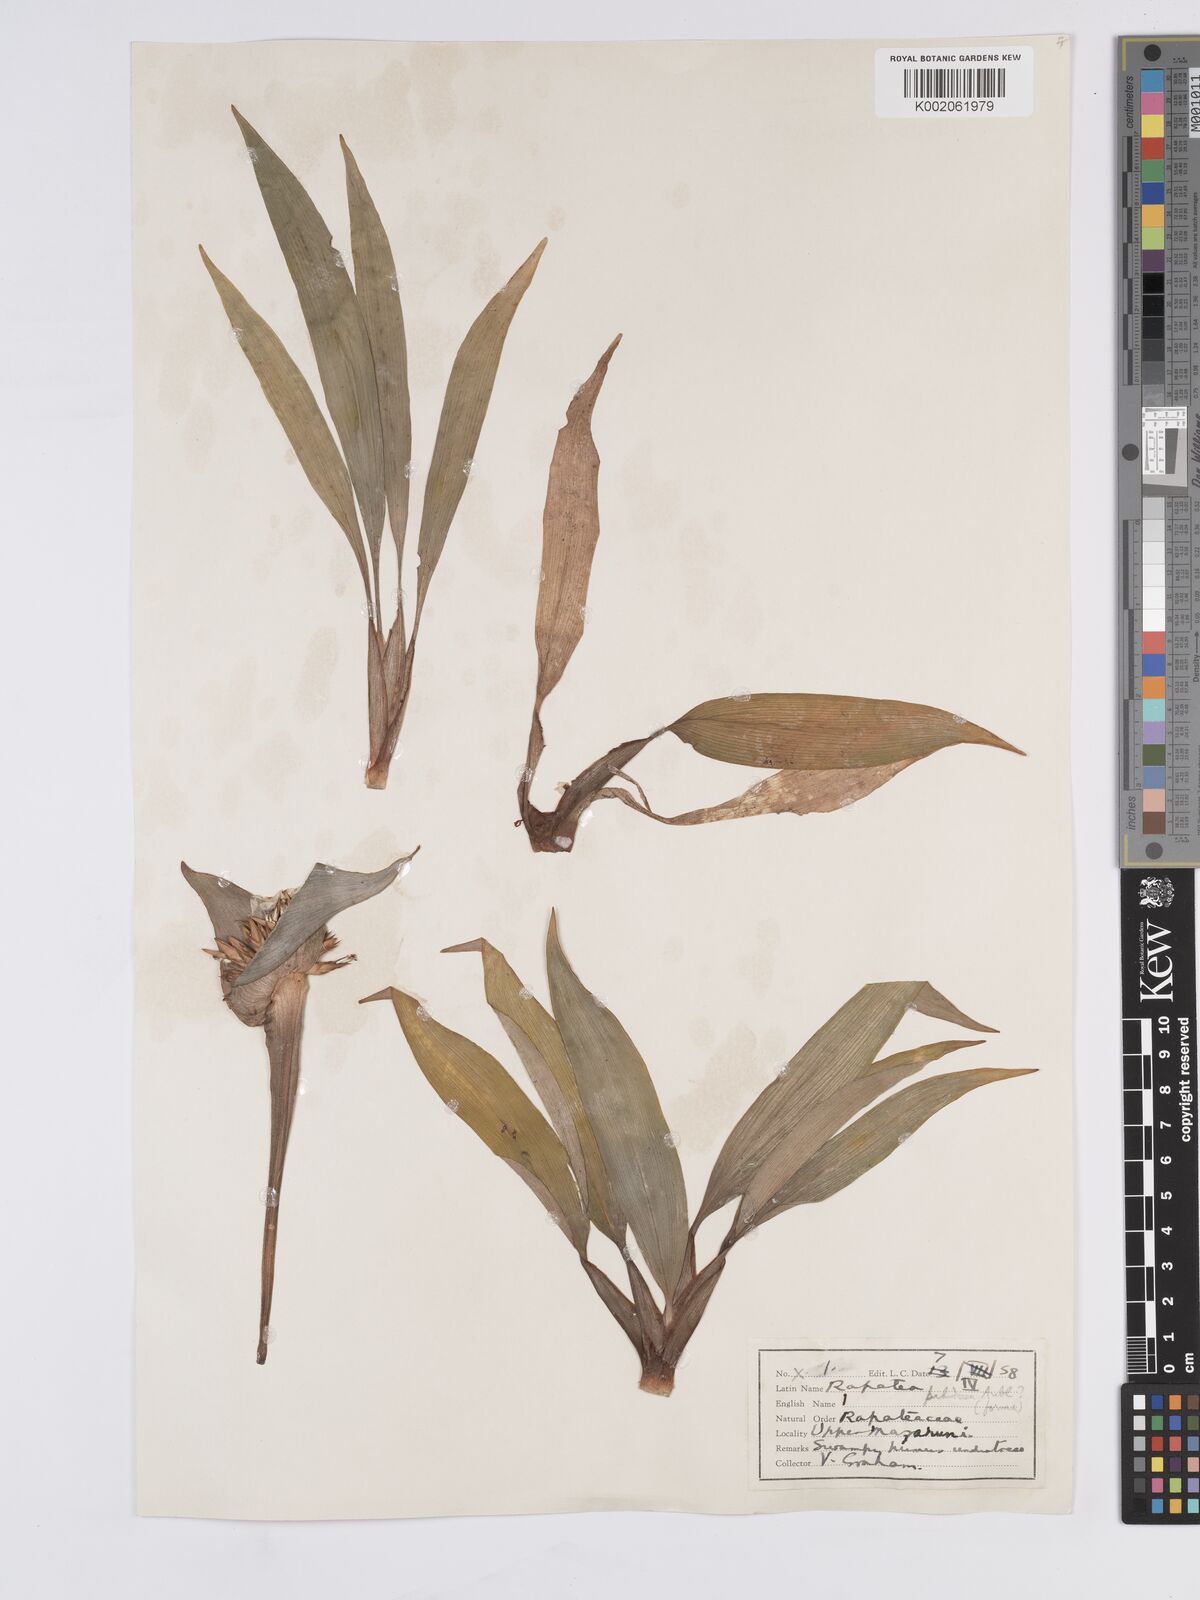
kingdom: Plantae
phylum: Tracheophyta
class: Liliopsida
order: Poales
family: Rapateaceae
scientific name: Rapateaceae
